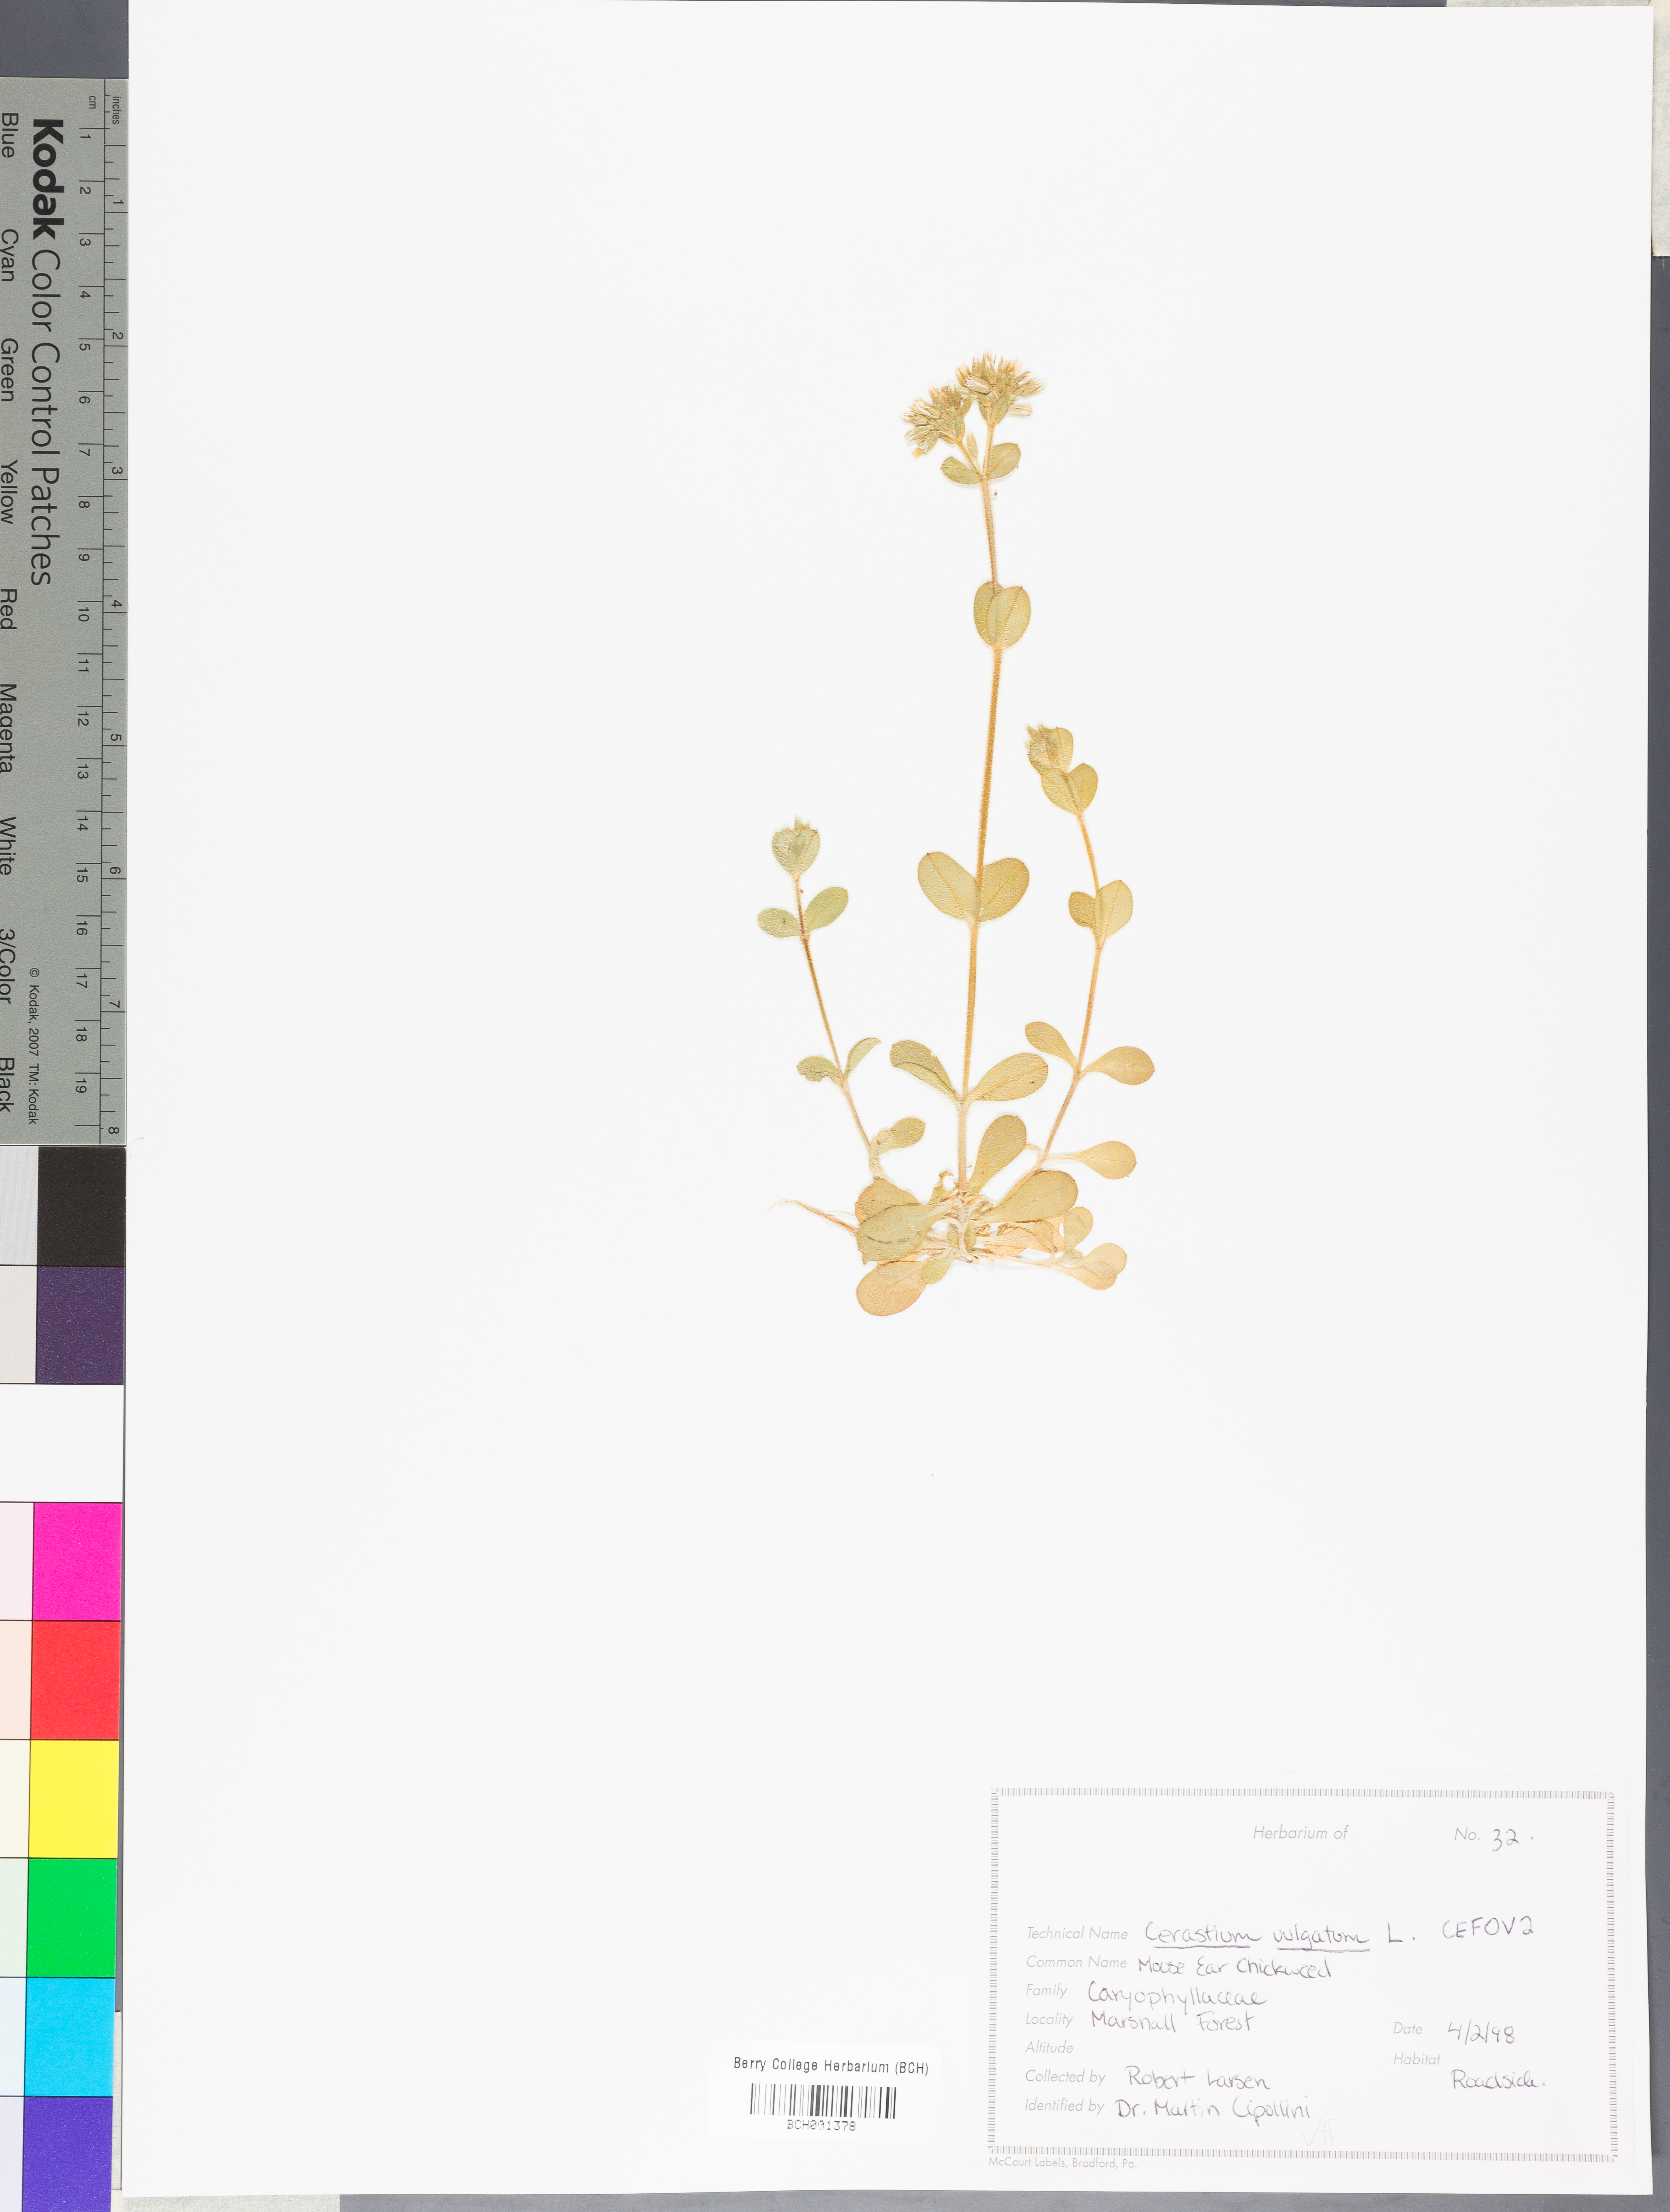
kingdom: Plantae
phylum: Tracheophyta
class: Magnoliopsida
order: Caryophyllales
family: Caryophyllaceae
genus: Cerastium
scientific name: Cerastium holosteoides
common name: Big chickweed
